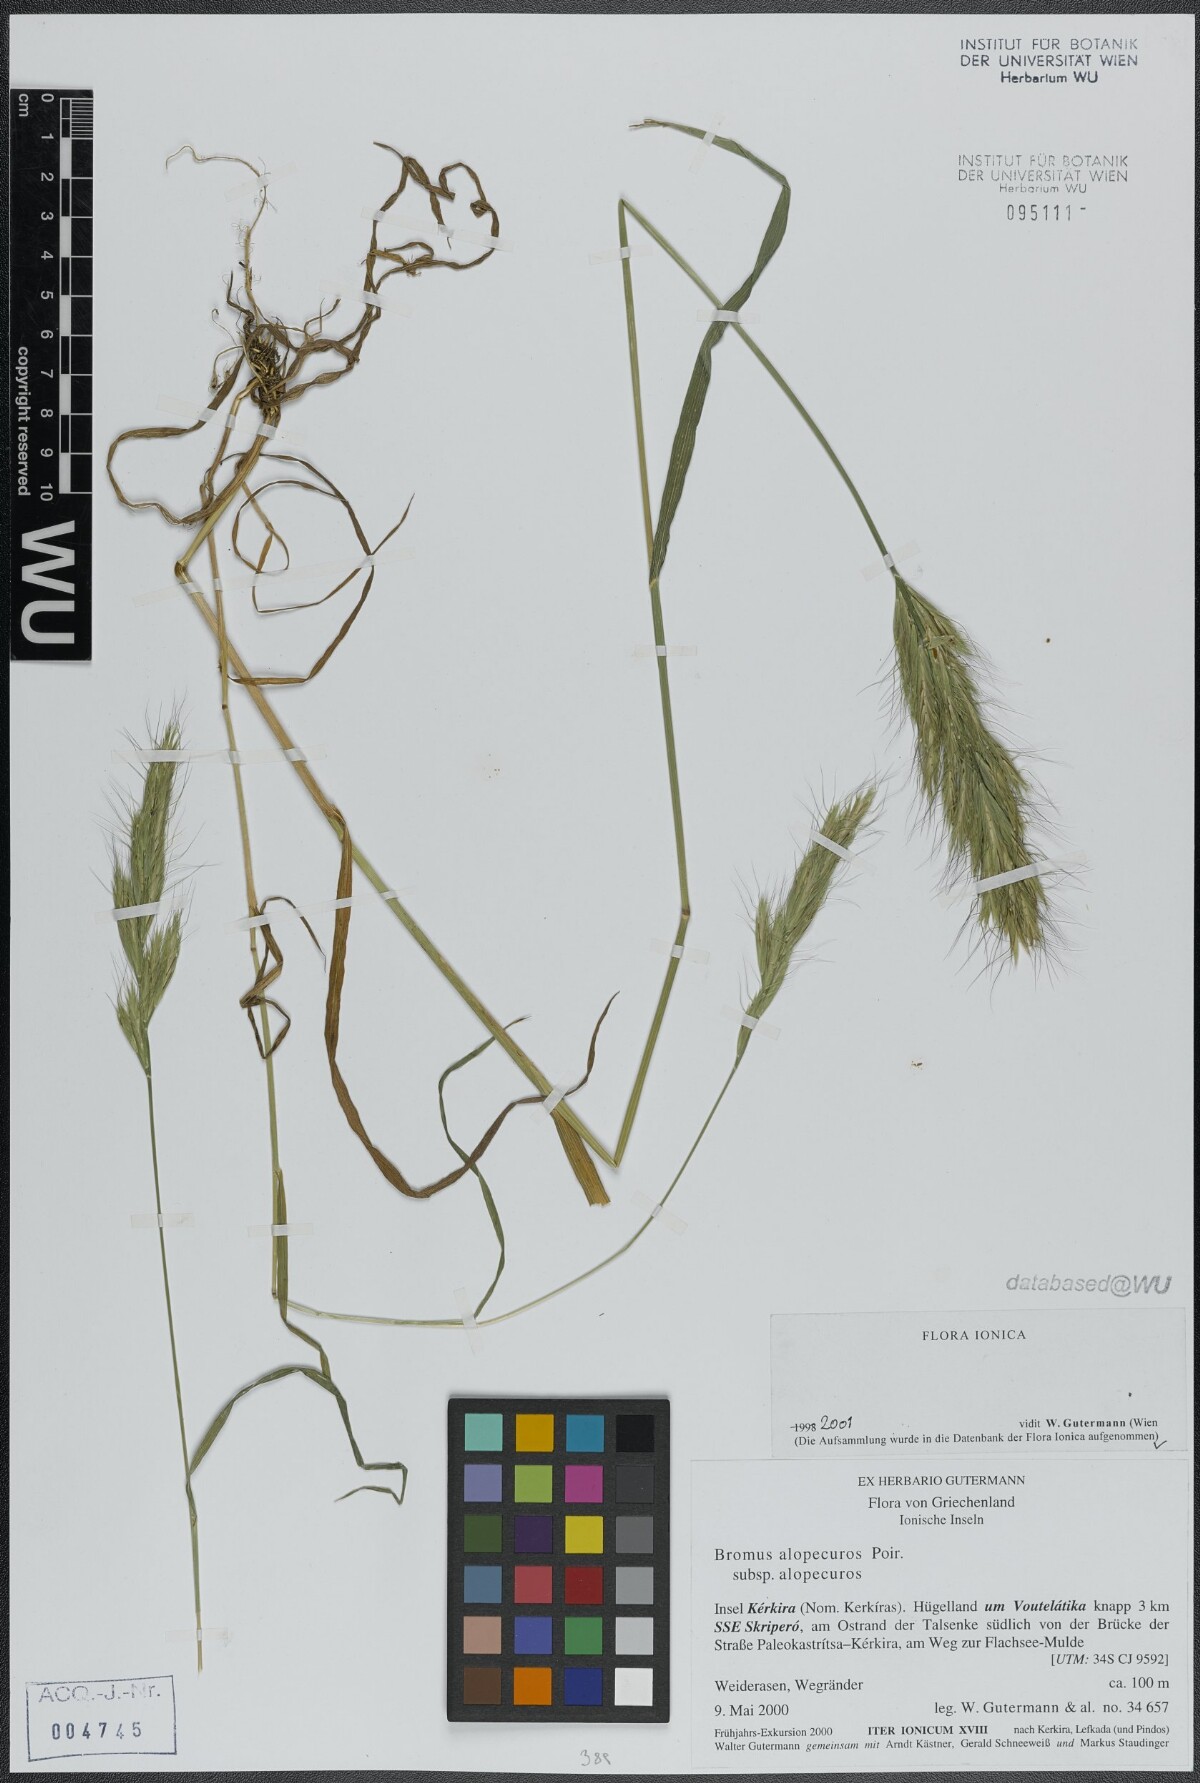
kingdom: Plantae
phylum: Tracheophyta
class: Liliopsida
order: Poales
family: Poaceae
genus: Bromus
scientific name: Bromus alopecuros
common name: Weedy brome
